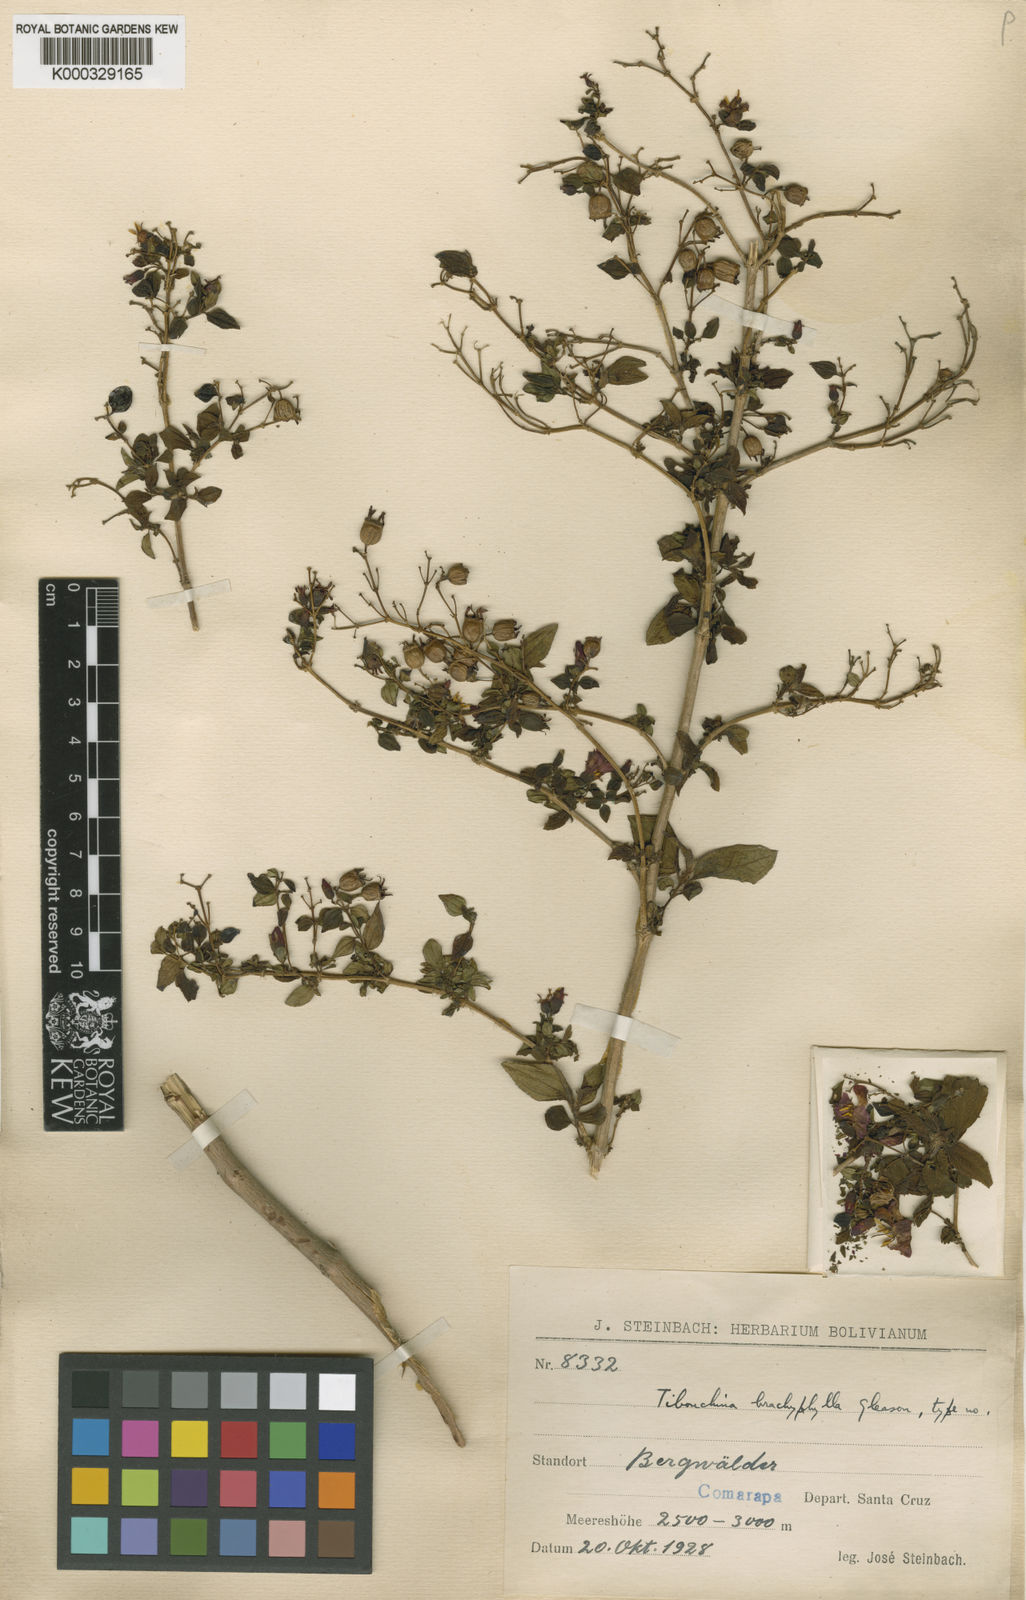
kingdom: Plantae
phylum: Tracheophyta
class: Magnoliopsida
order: Myrtales
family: Melastomataceae
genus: Chaetogastra
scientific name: Chaetogastra brachyphylla
